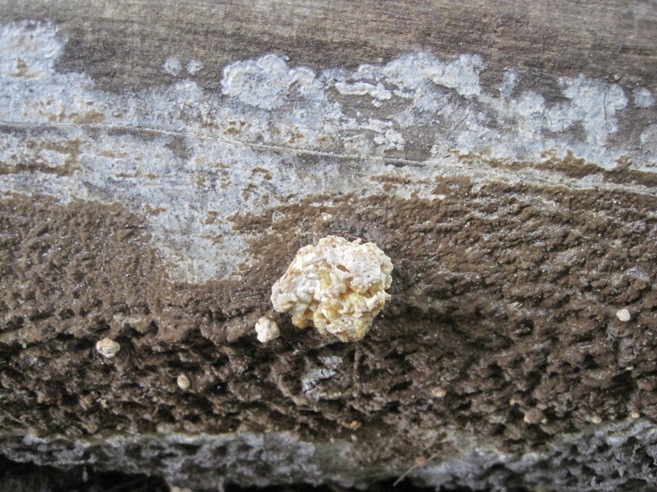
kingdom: Fungi
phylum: Ascomycota
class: Sordariomycetes
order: Xylariales
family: Hypoxylaceae
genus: Nodulisporium
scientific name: Nodulisporium cecidiogenes
